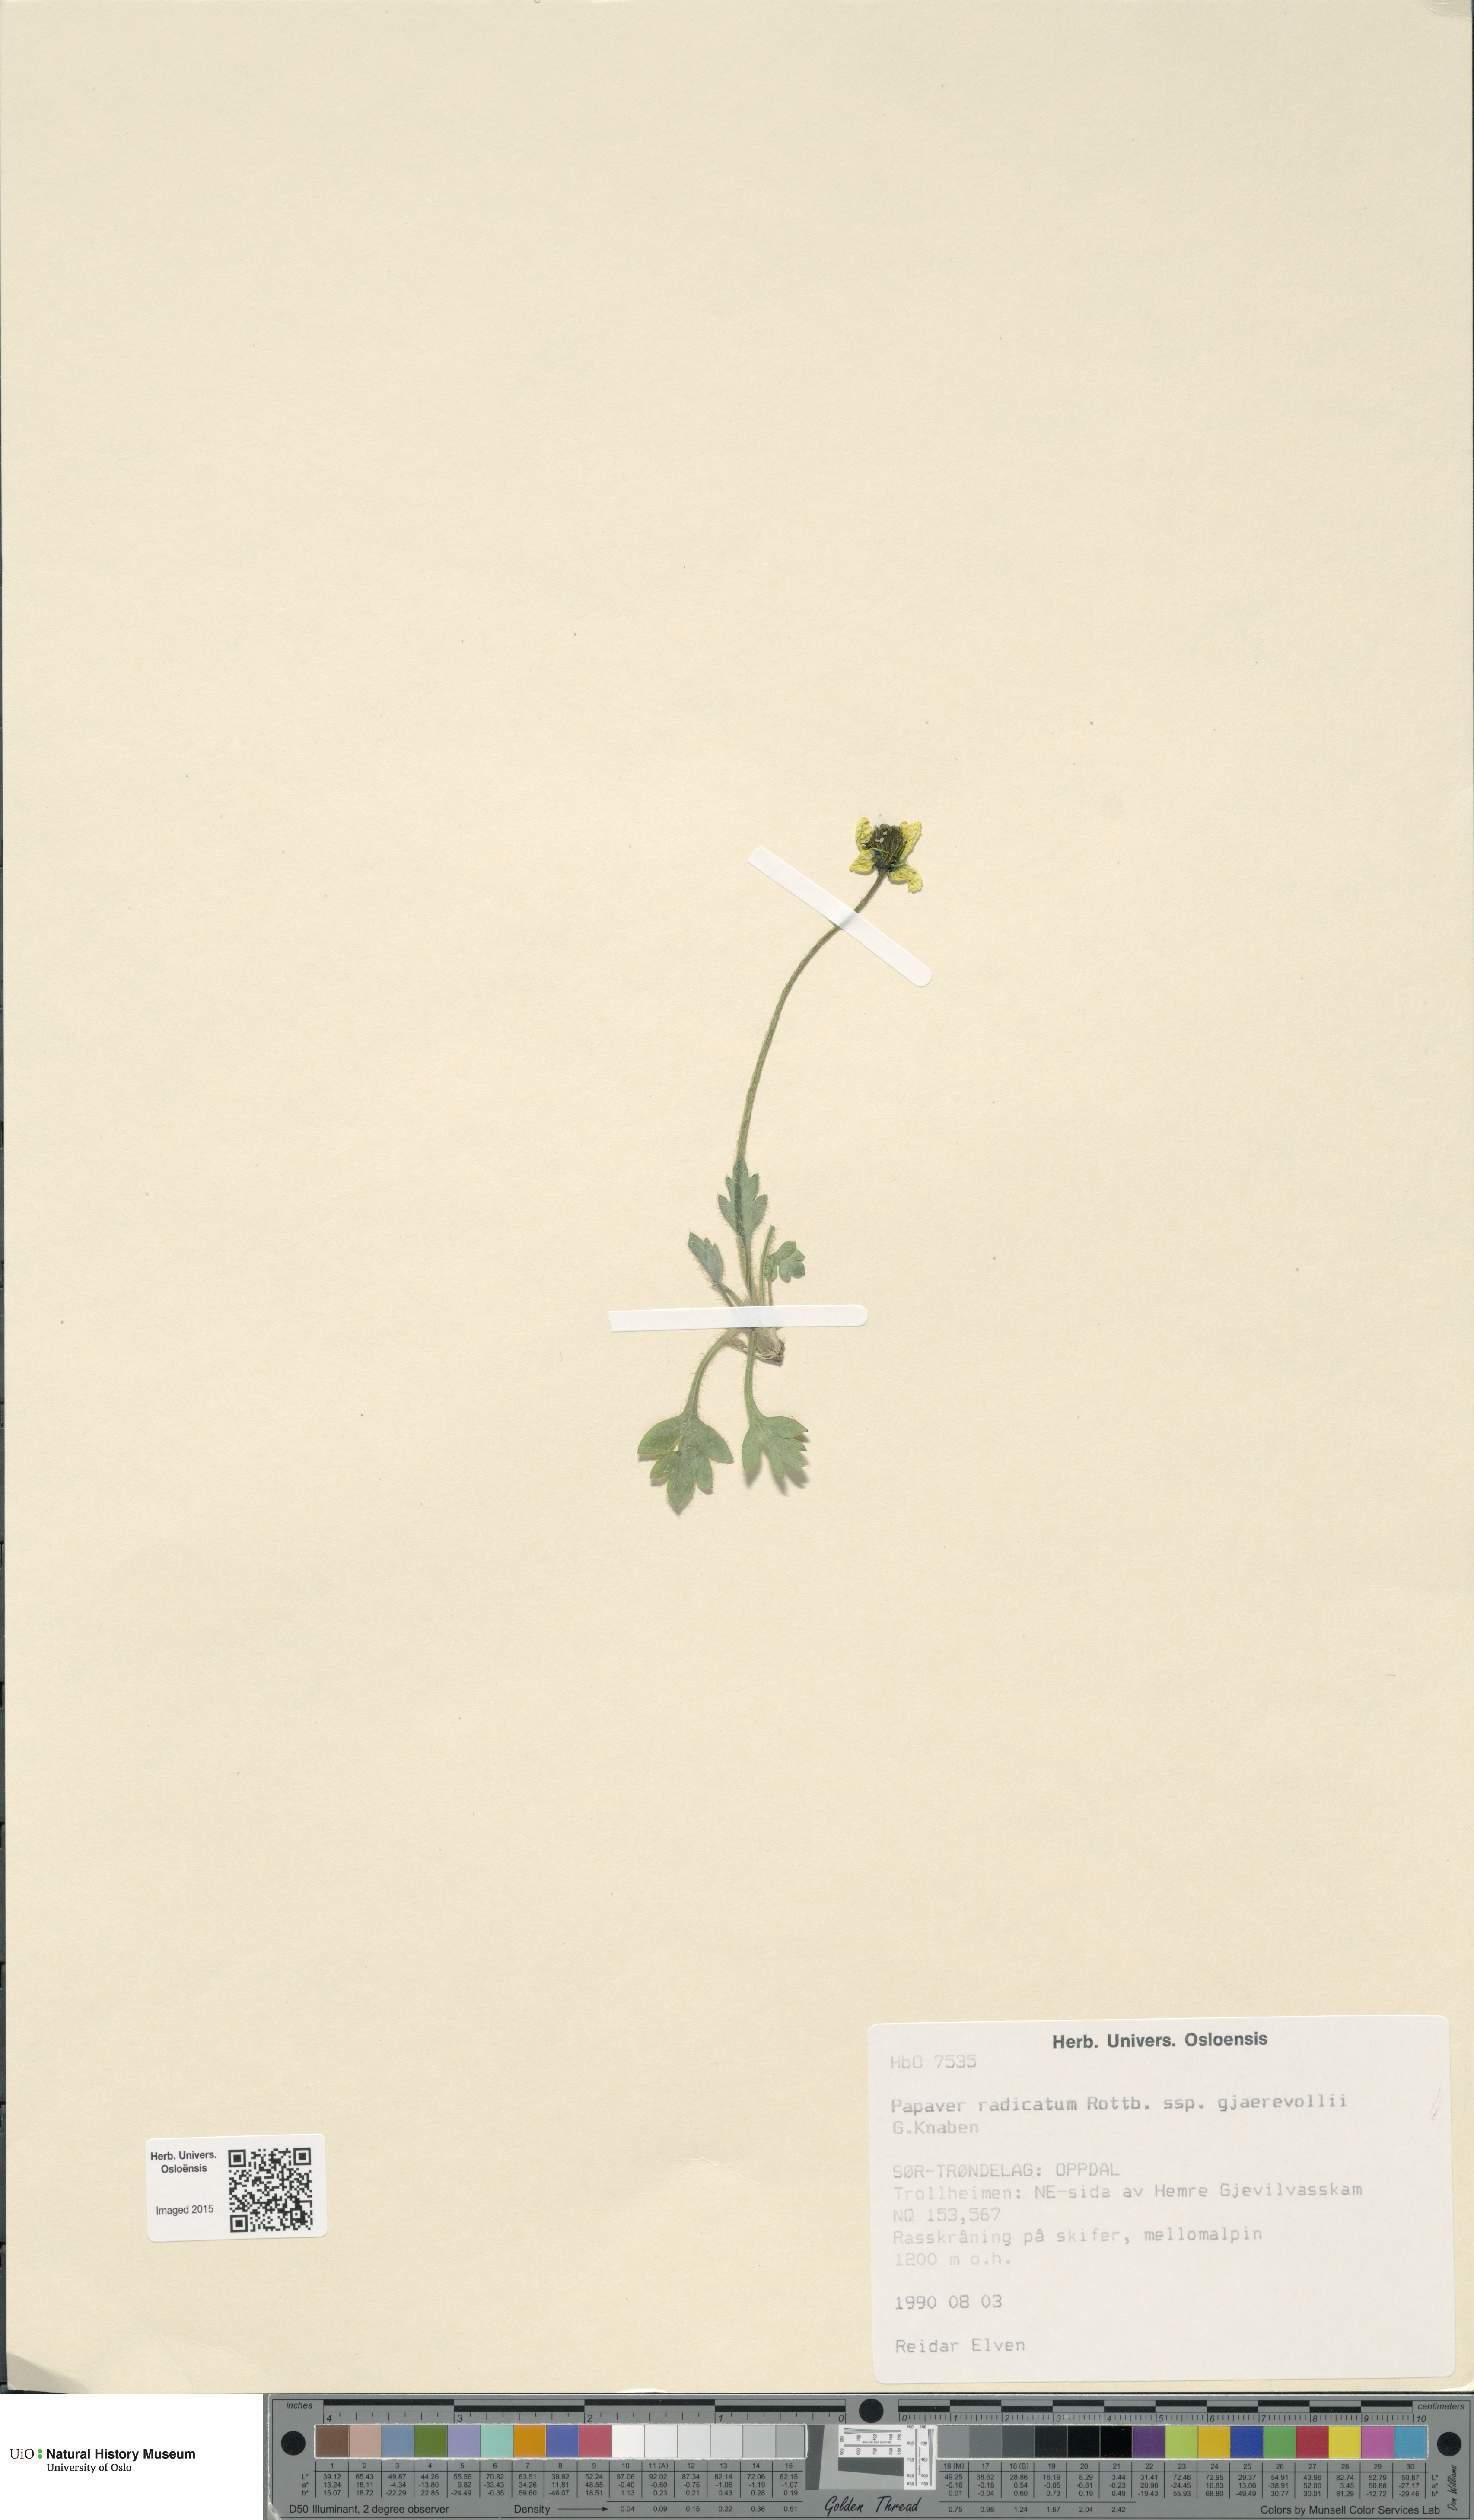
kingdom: Plantae
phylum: Tracheophyta
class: Magnoliopsida
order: Ranunculales
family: Papaveraceae
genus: Papaver
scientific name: Papaver radicatum
